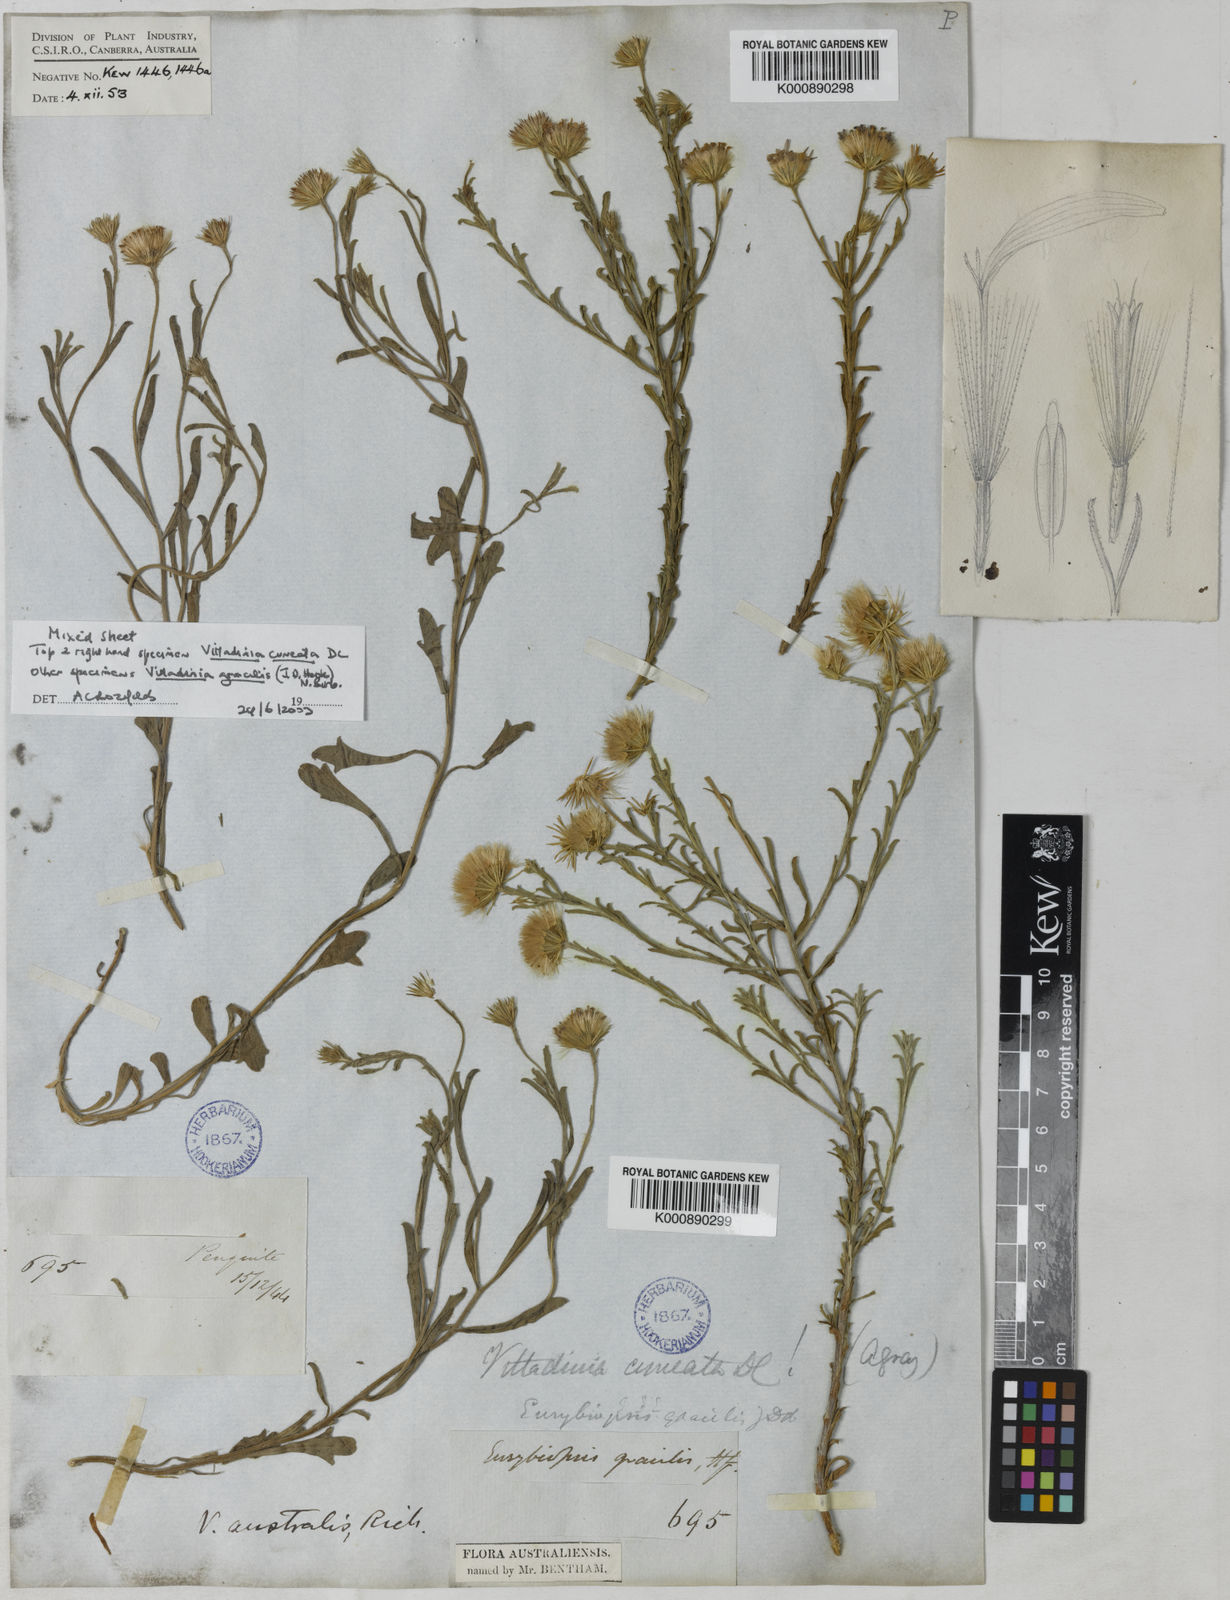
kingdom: Plantae
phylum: Tracheophyta
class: Magnoliopsida
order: Asterales
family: Asteraceae
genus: Vittadinia
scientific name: Vittadinia gracilis
